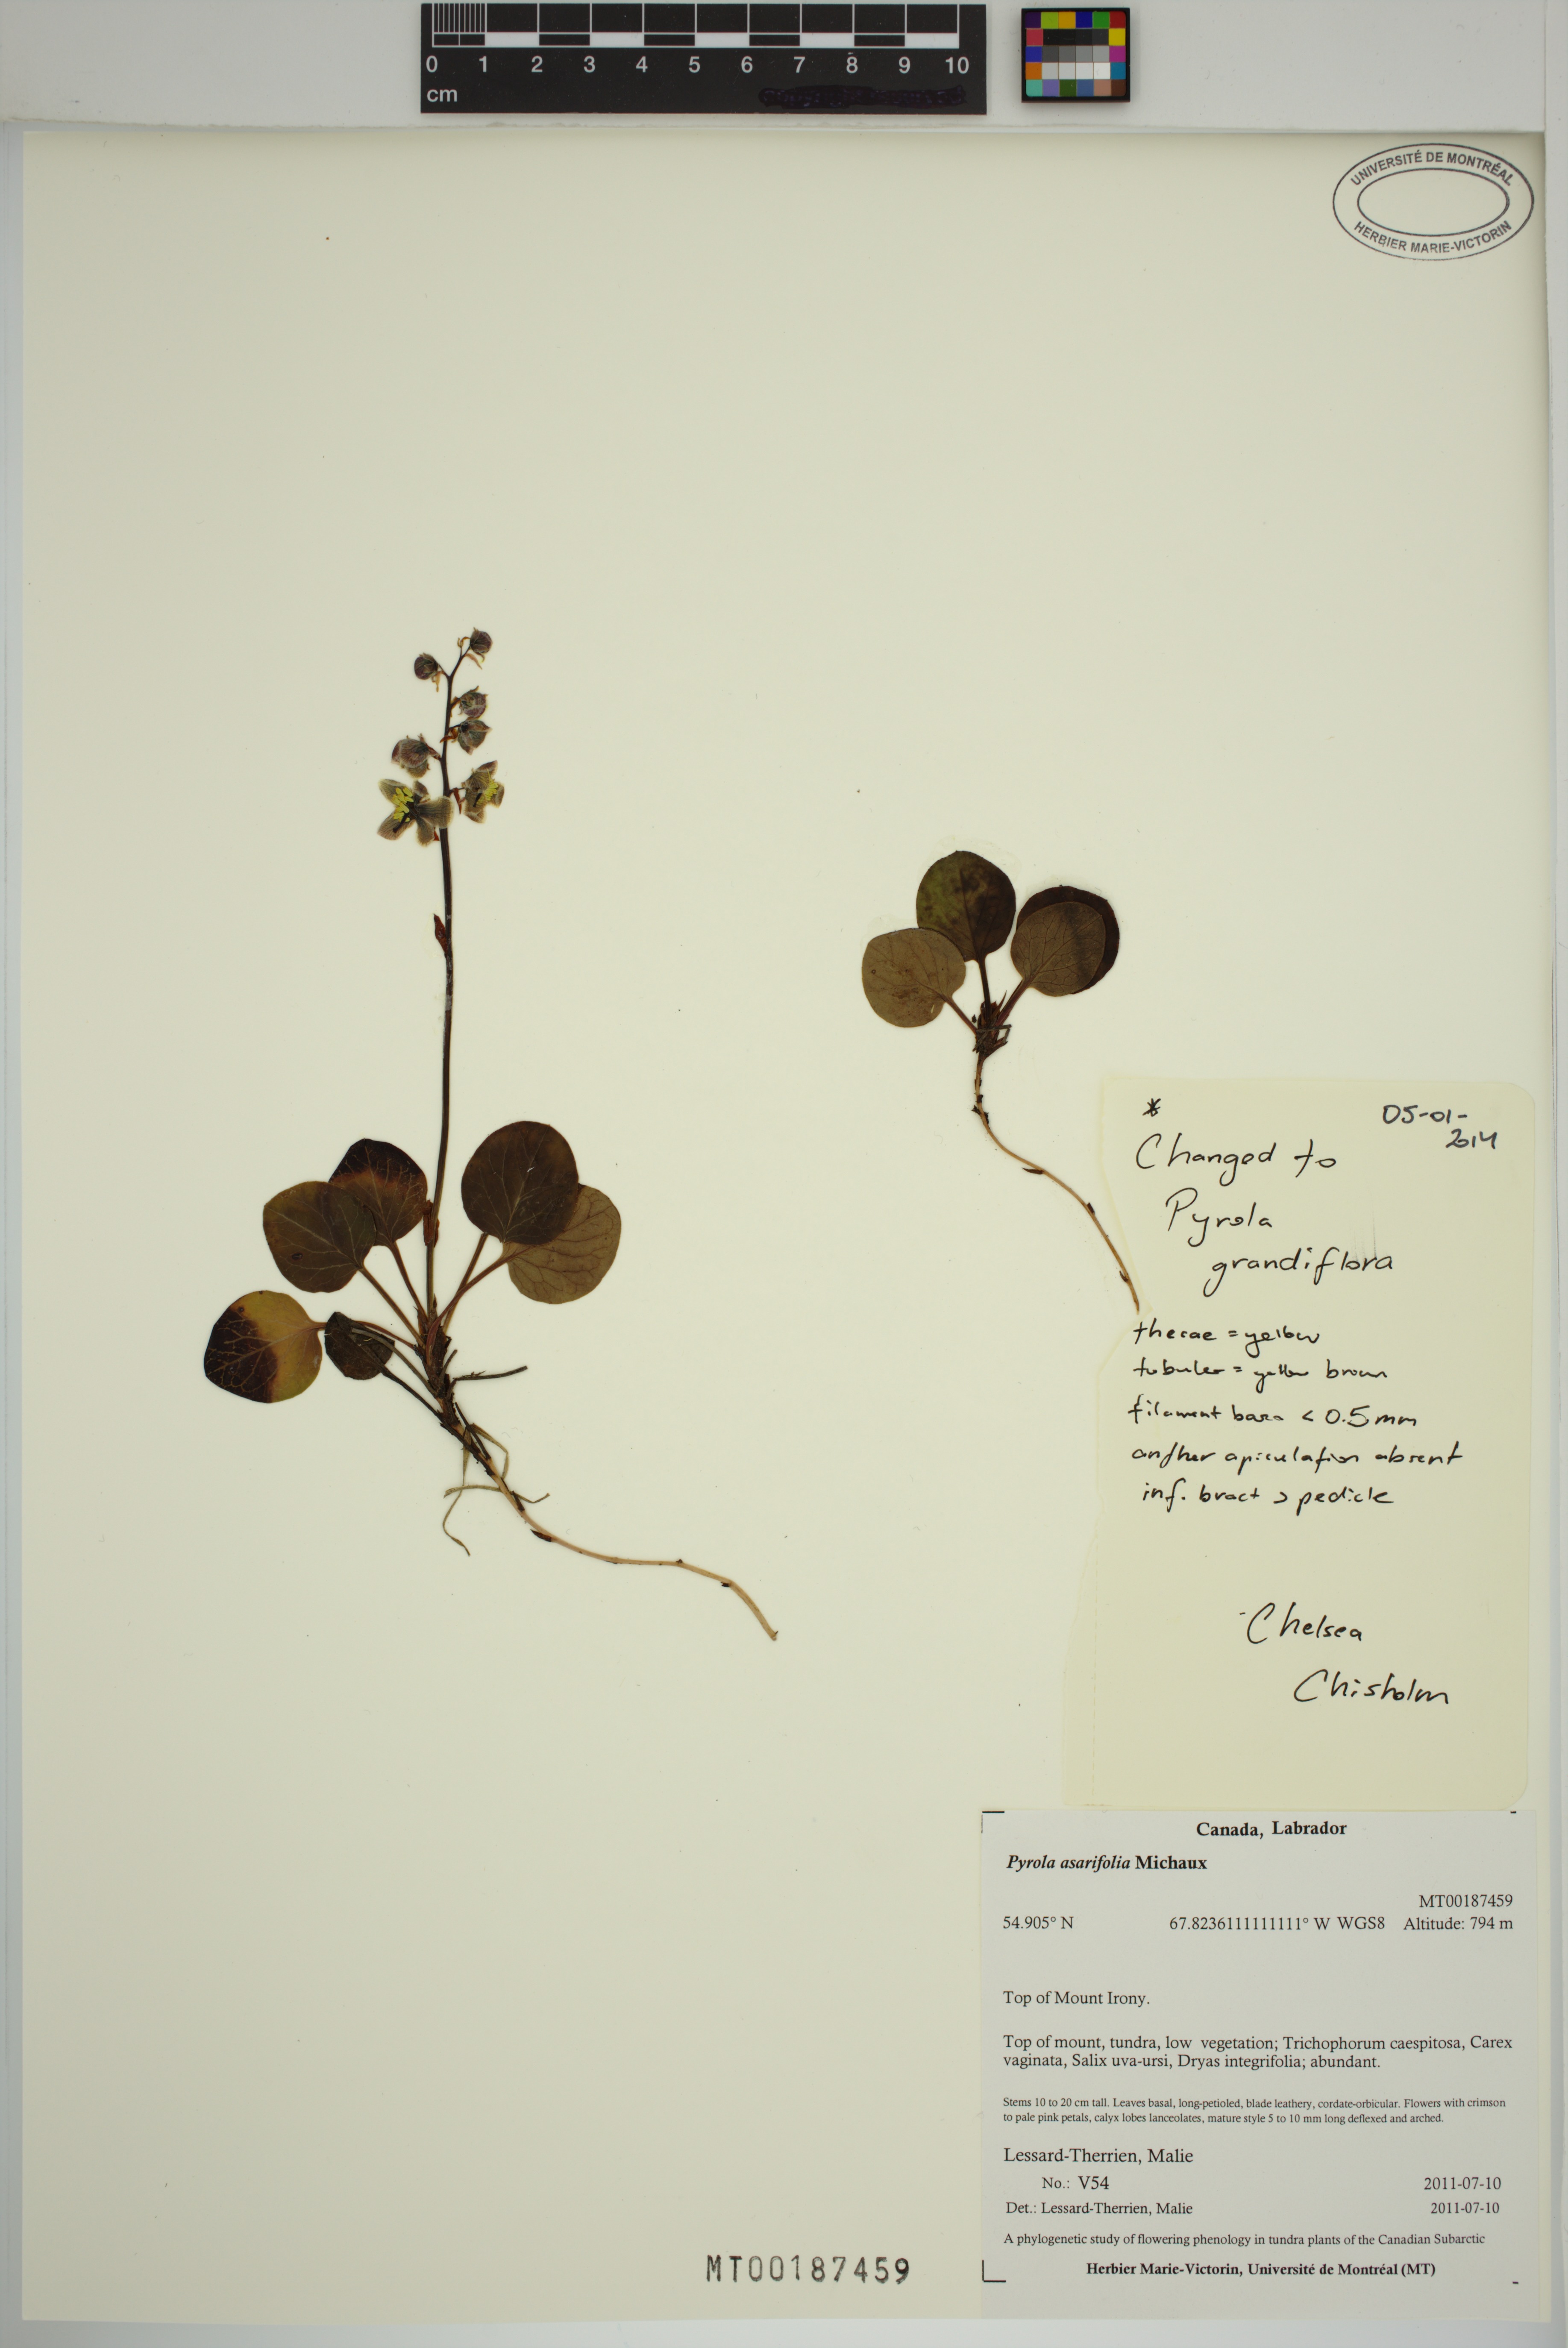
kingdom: Plantae
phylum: Tracheophyta
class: Magnoliopsida
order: Ericales
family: Ericaceae
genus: Pyrola
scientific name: Pyrola grandiflora
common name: Arctic pyrola
